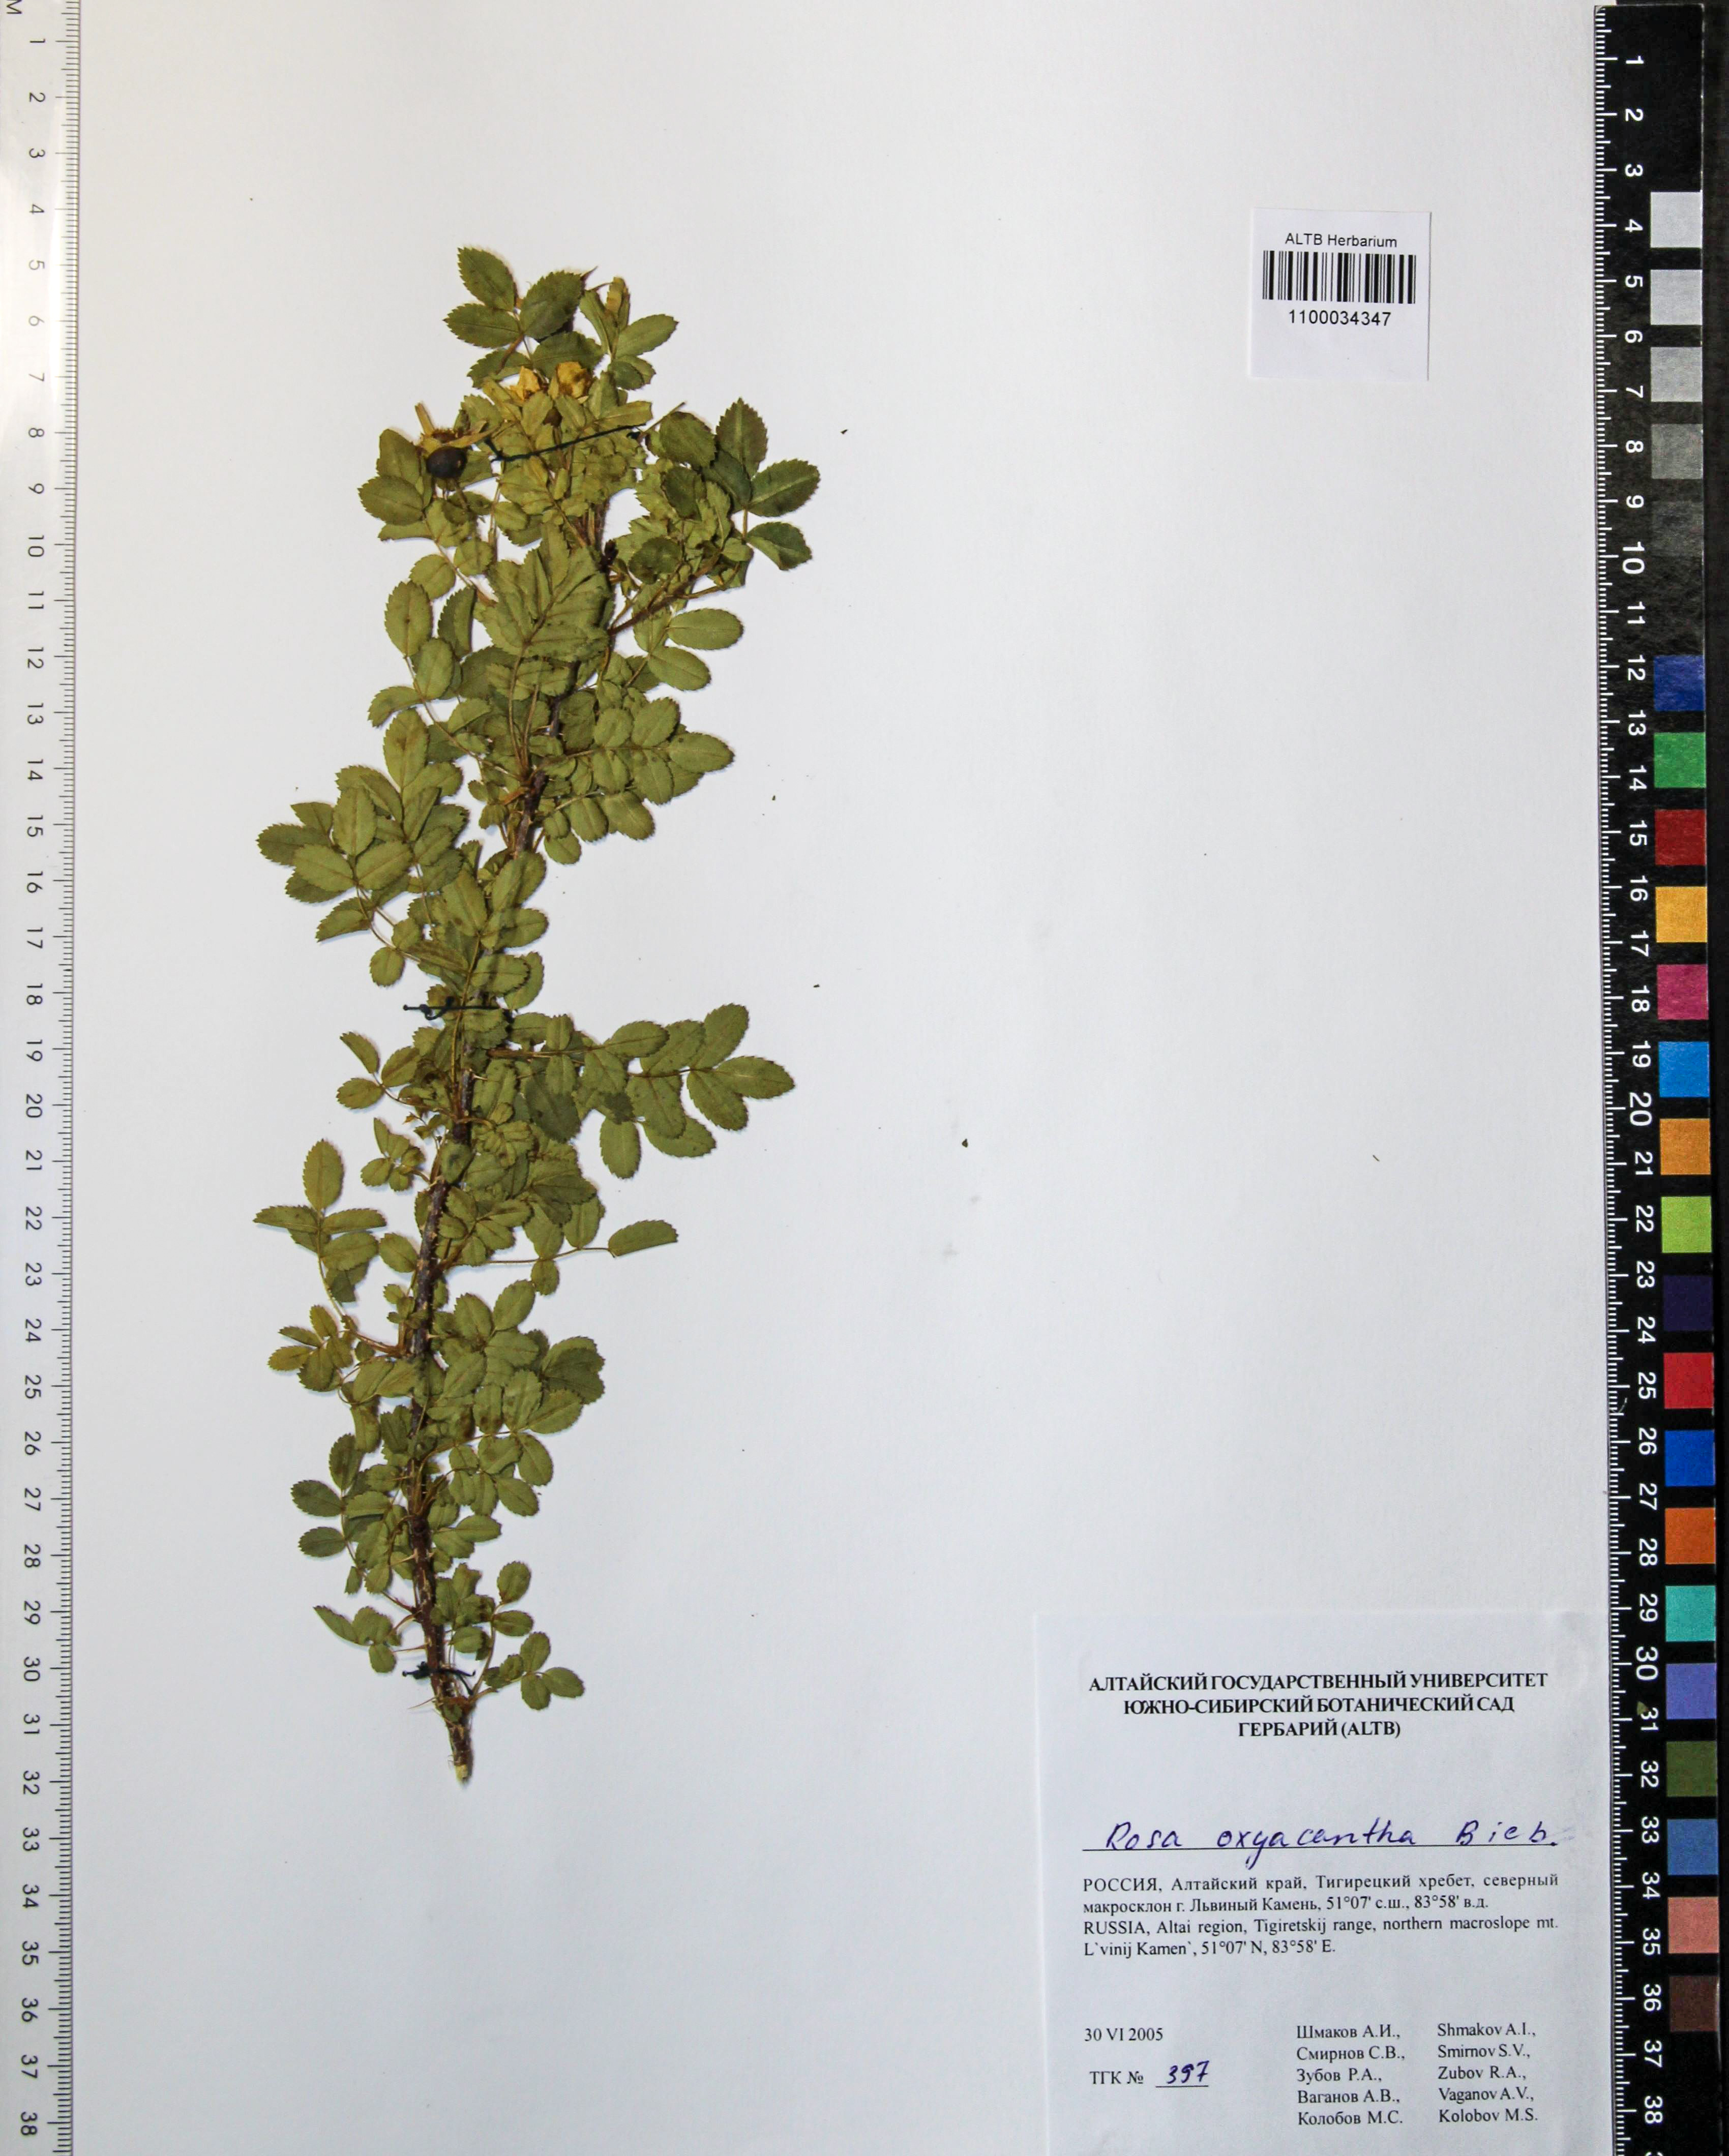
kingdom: Plantae
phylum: Tracheophyta
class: Magnoliopsida
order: Rosales
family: Rosaceae
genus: Rosa
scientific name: Rosa oxyacantha
